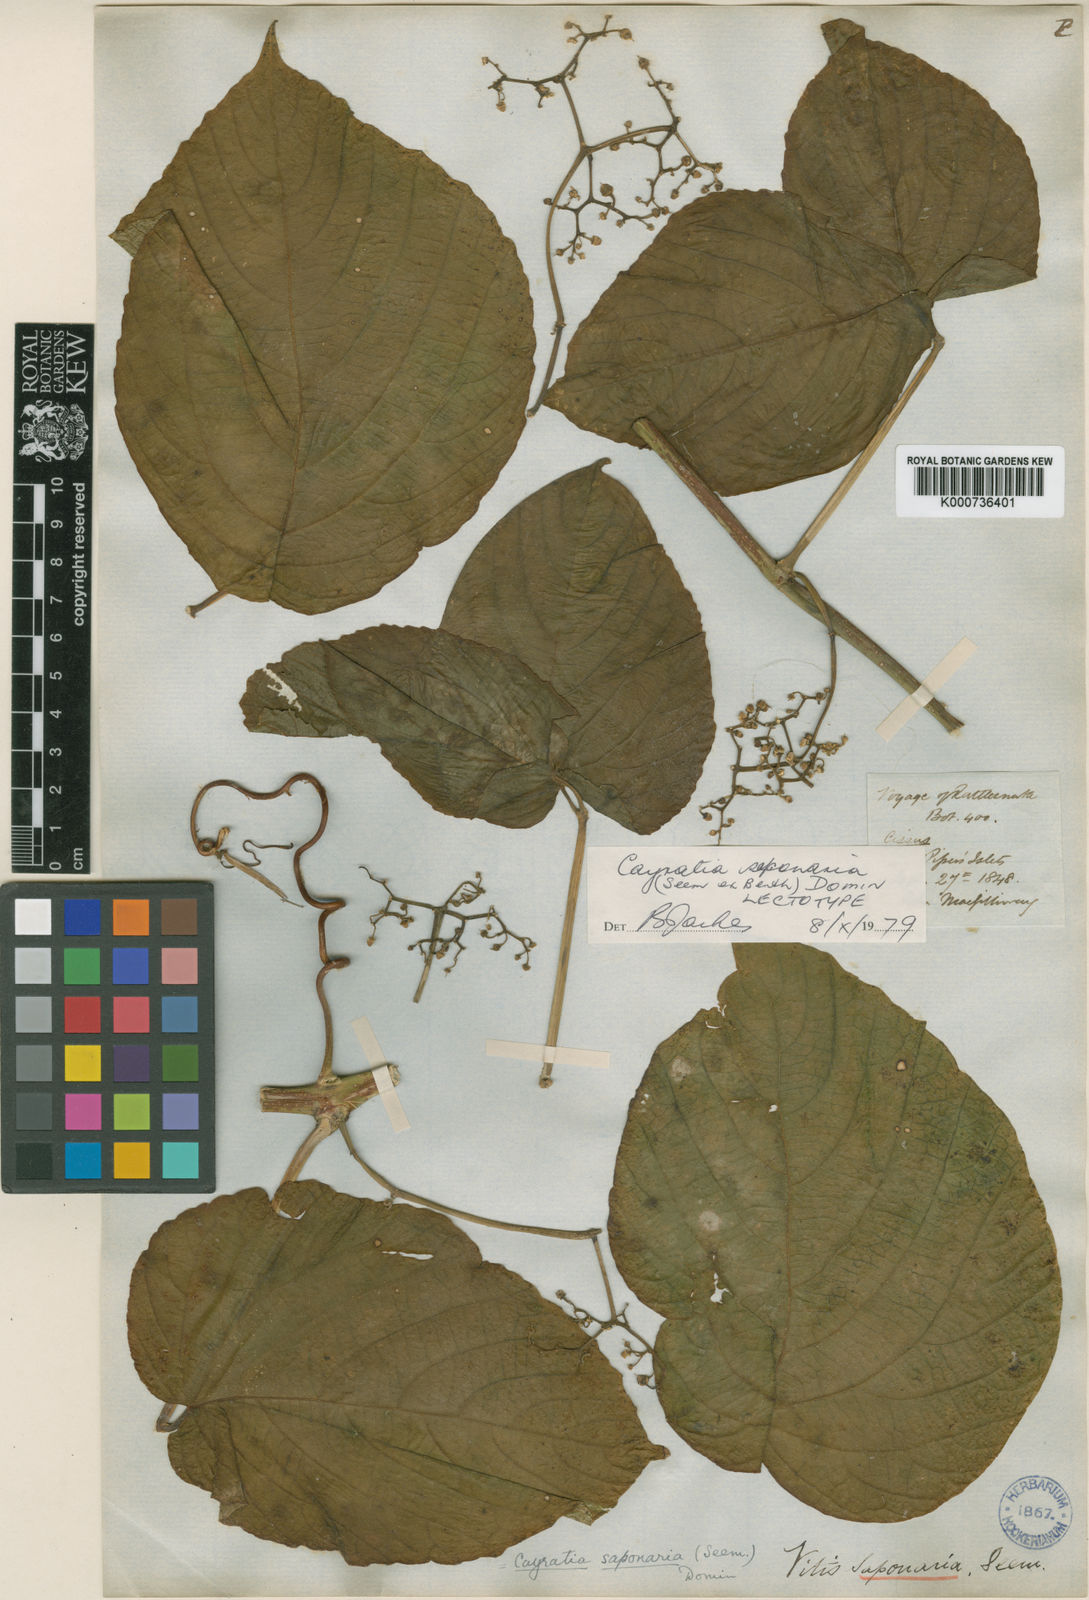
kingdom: Plantae
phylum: Tracheophyta
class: Magnoliopsida
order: Vitales
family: Vitaceae
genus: Cayratia
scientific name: Cayratia saponaria
